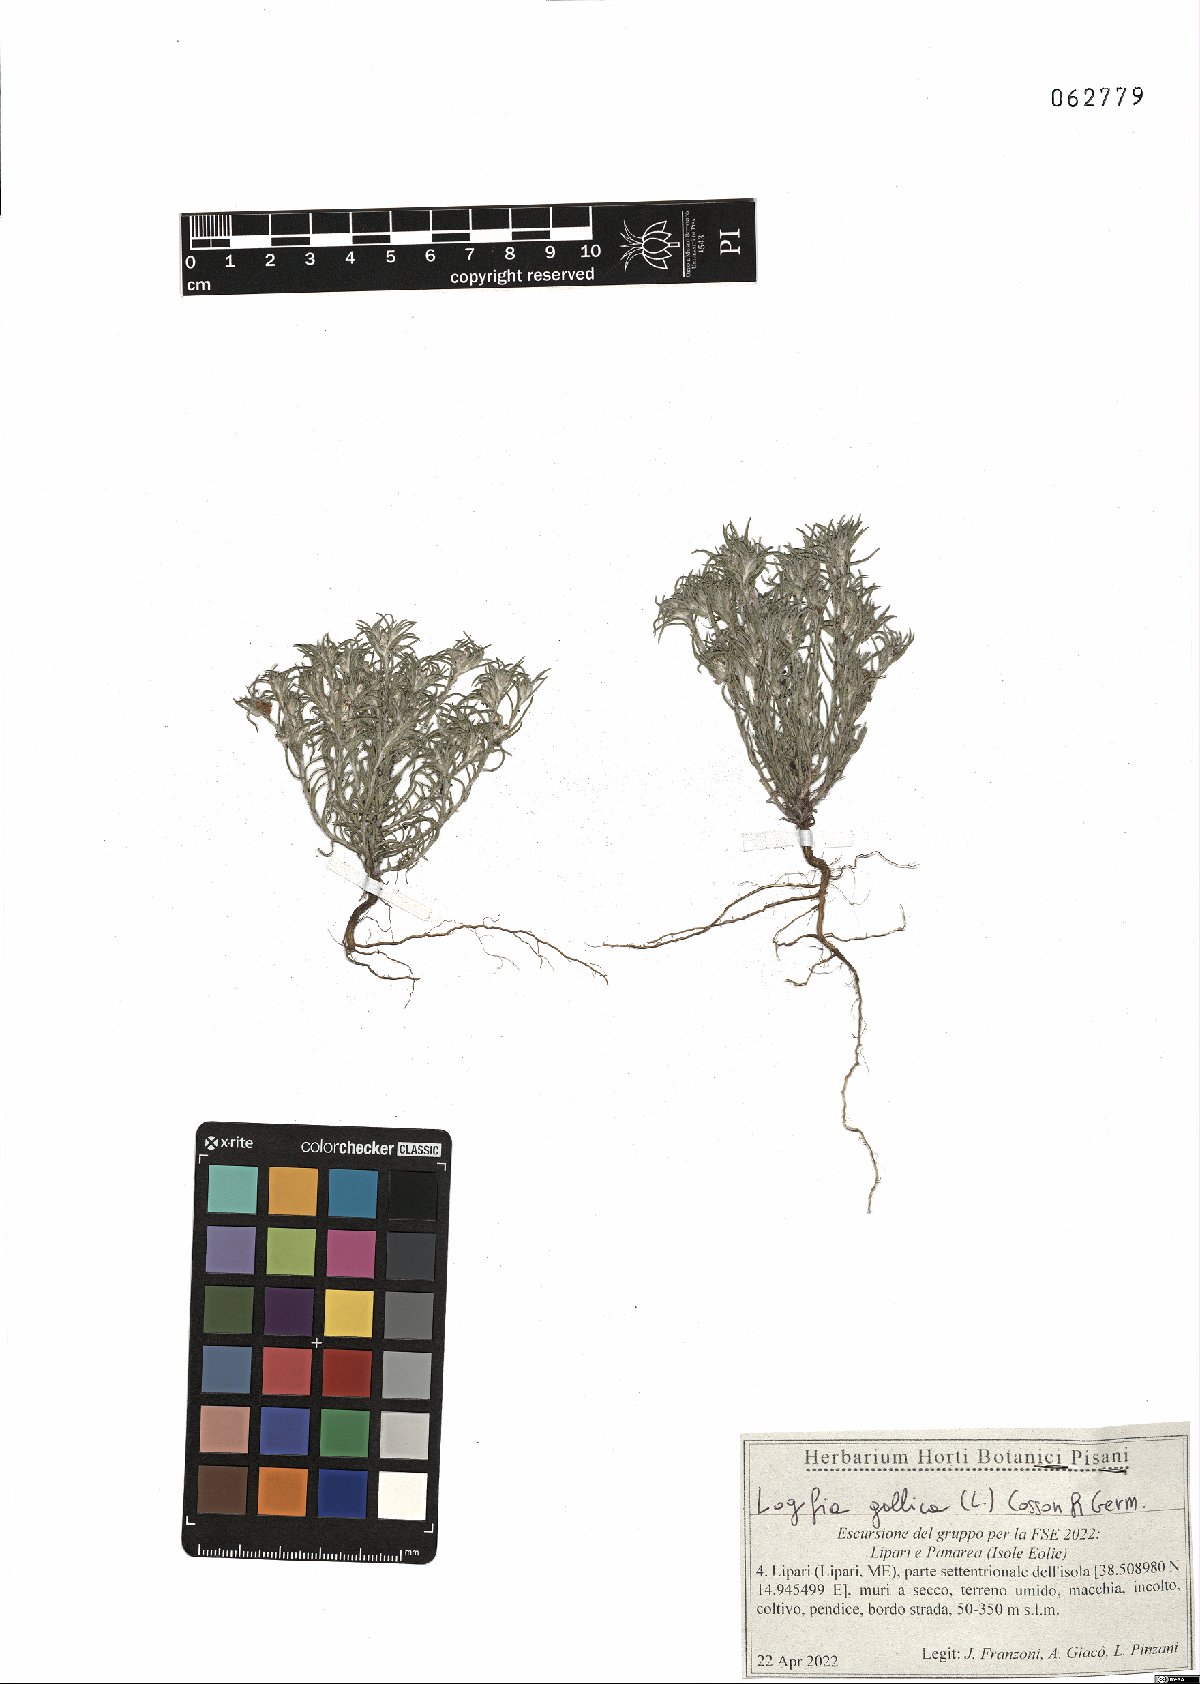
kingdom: Plantae
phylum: Tracheophyta
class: Magnoliopsida
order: Asterales
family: Asteraceae
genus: Logfia
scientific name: Logfia gallica
